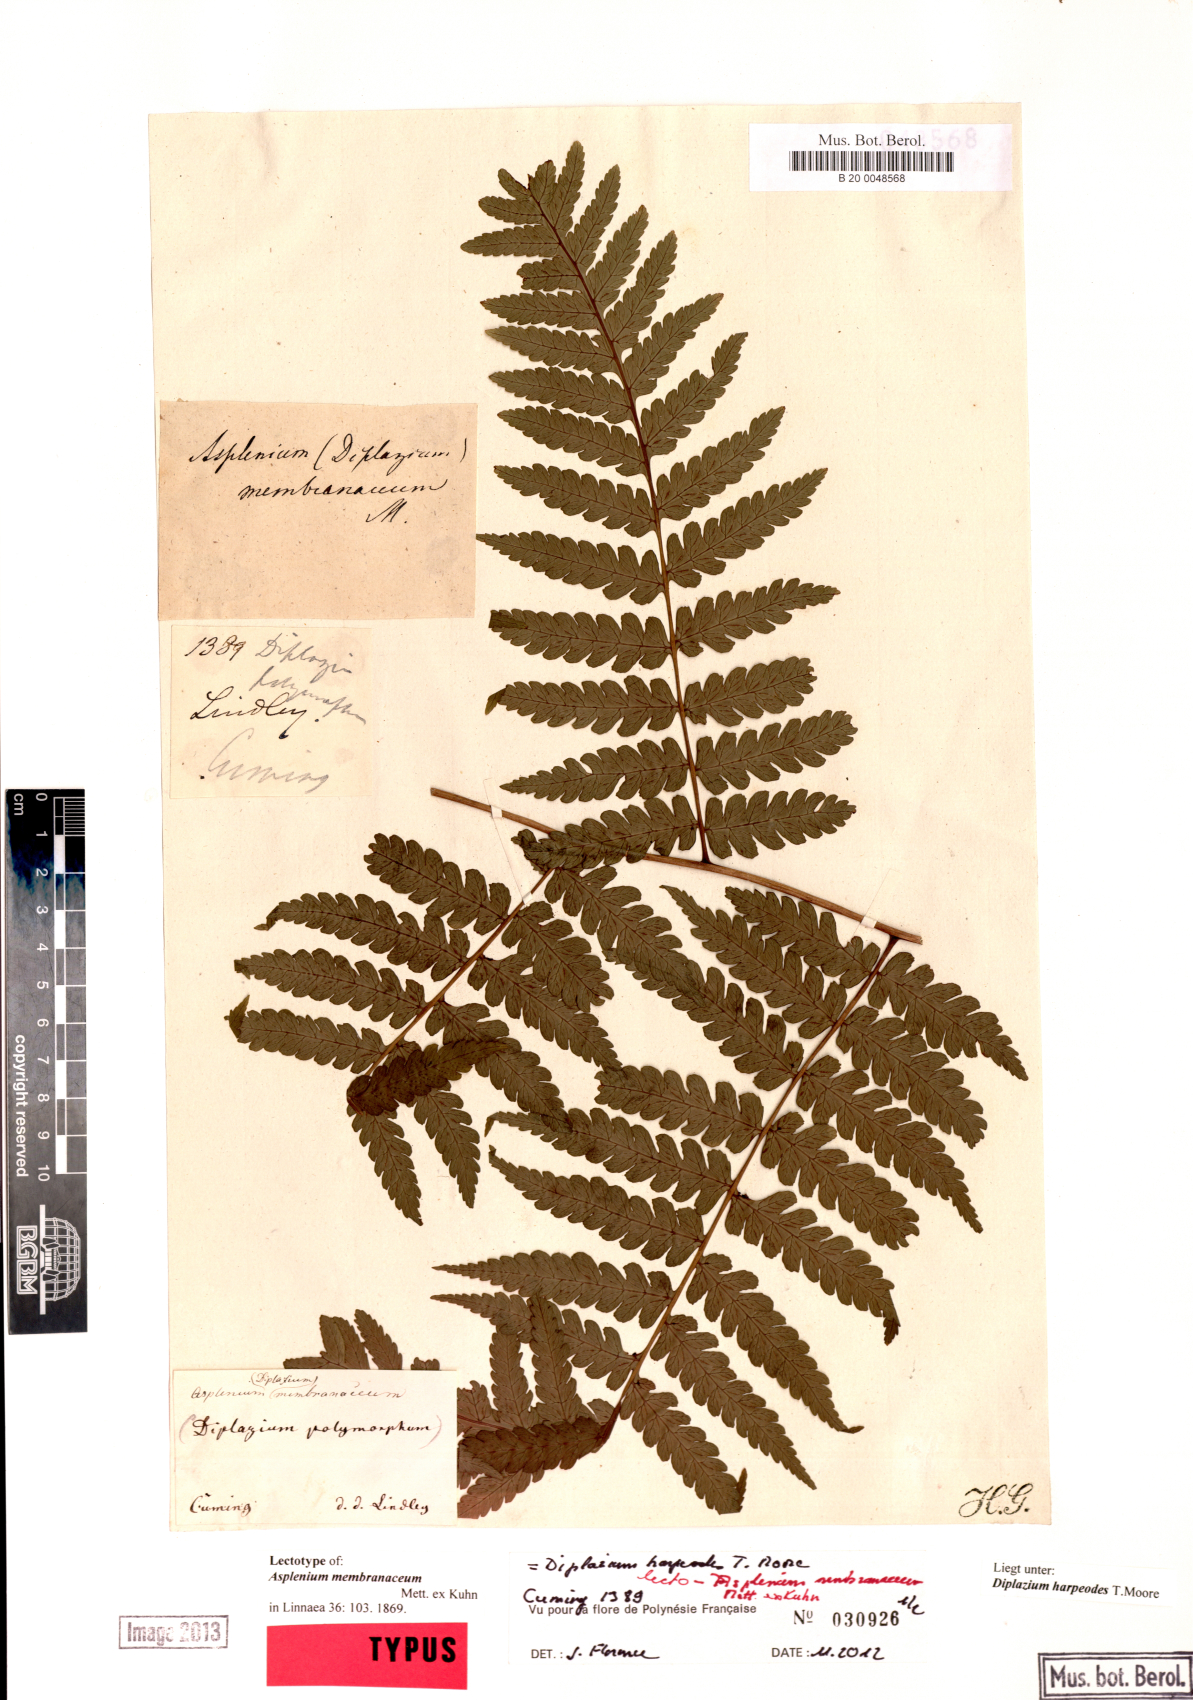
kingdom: Plantae
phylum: Tracheophyta
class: Polypodiopsida
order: Polypodiales
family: Athyriaceae
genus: Diplazium
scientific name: Diplazium harpeodes
